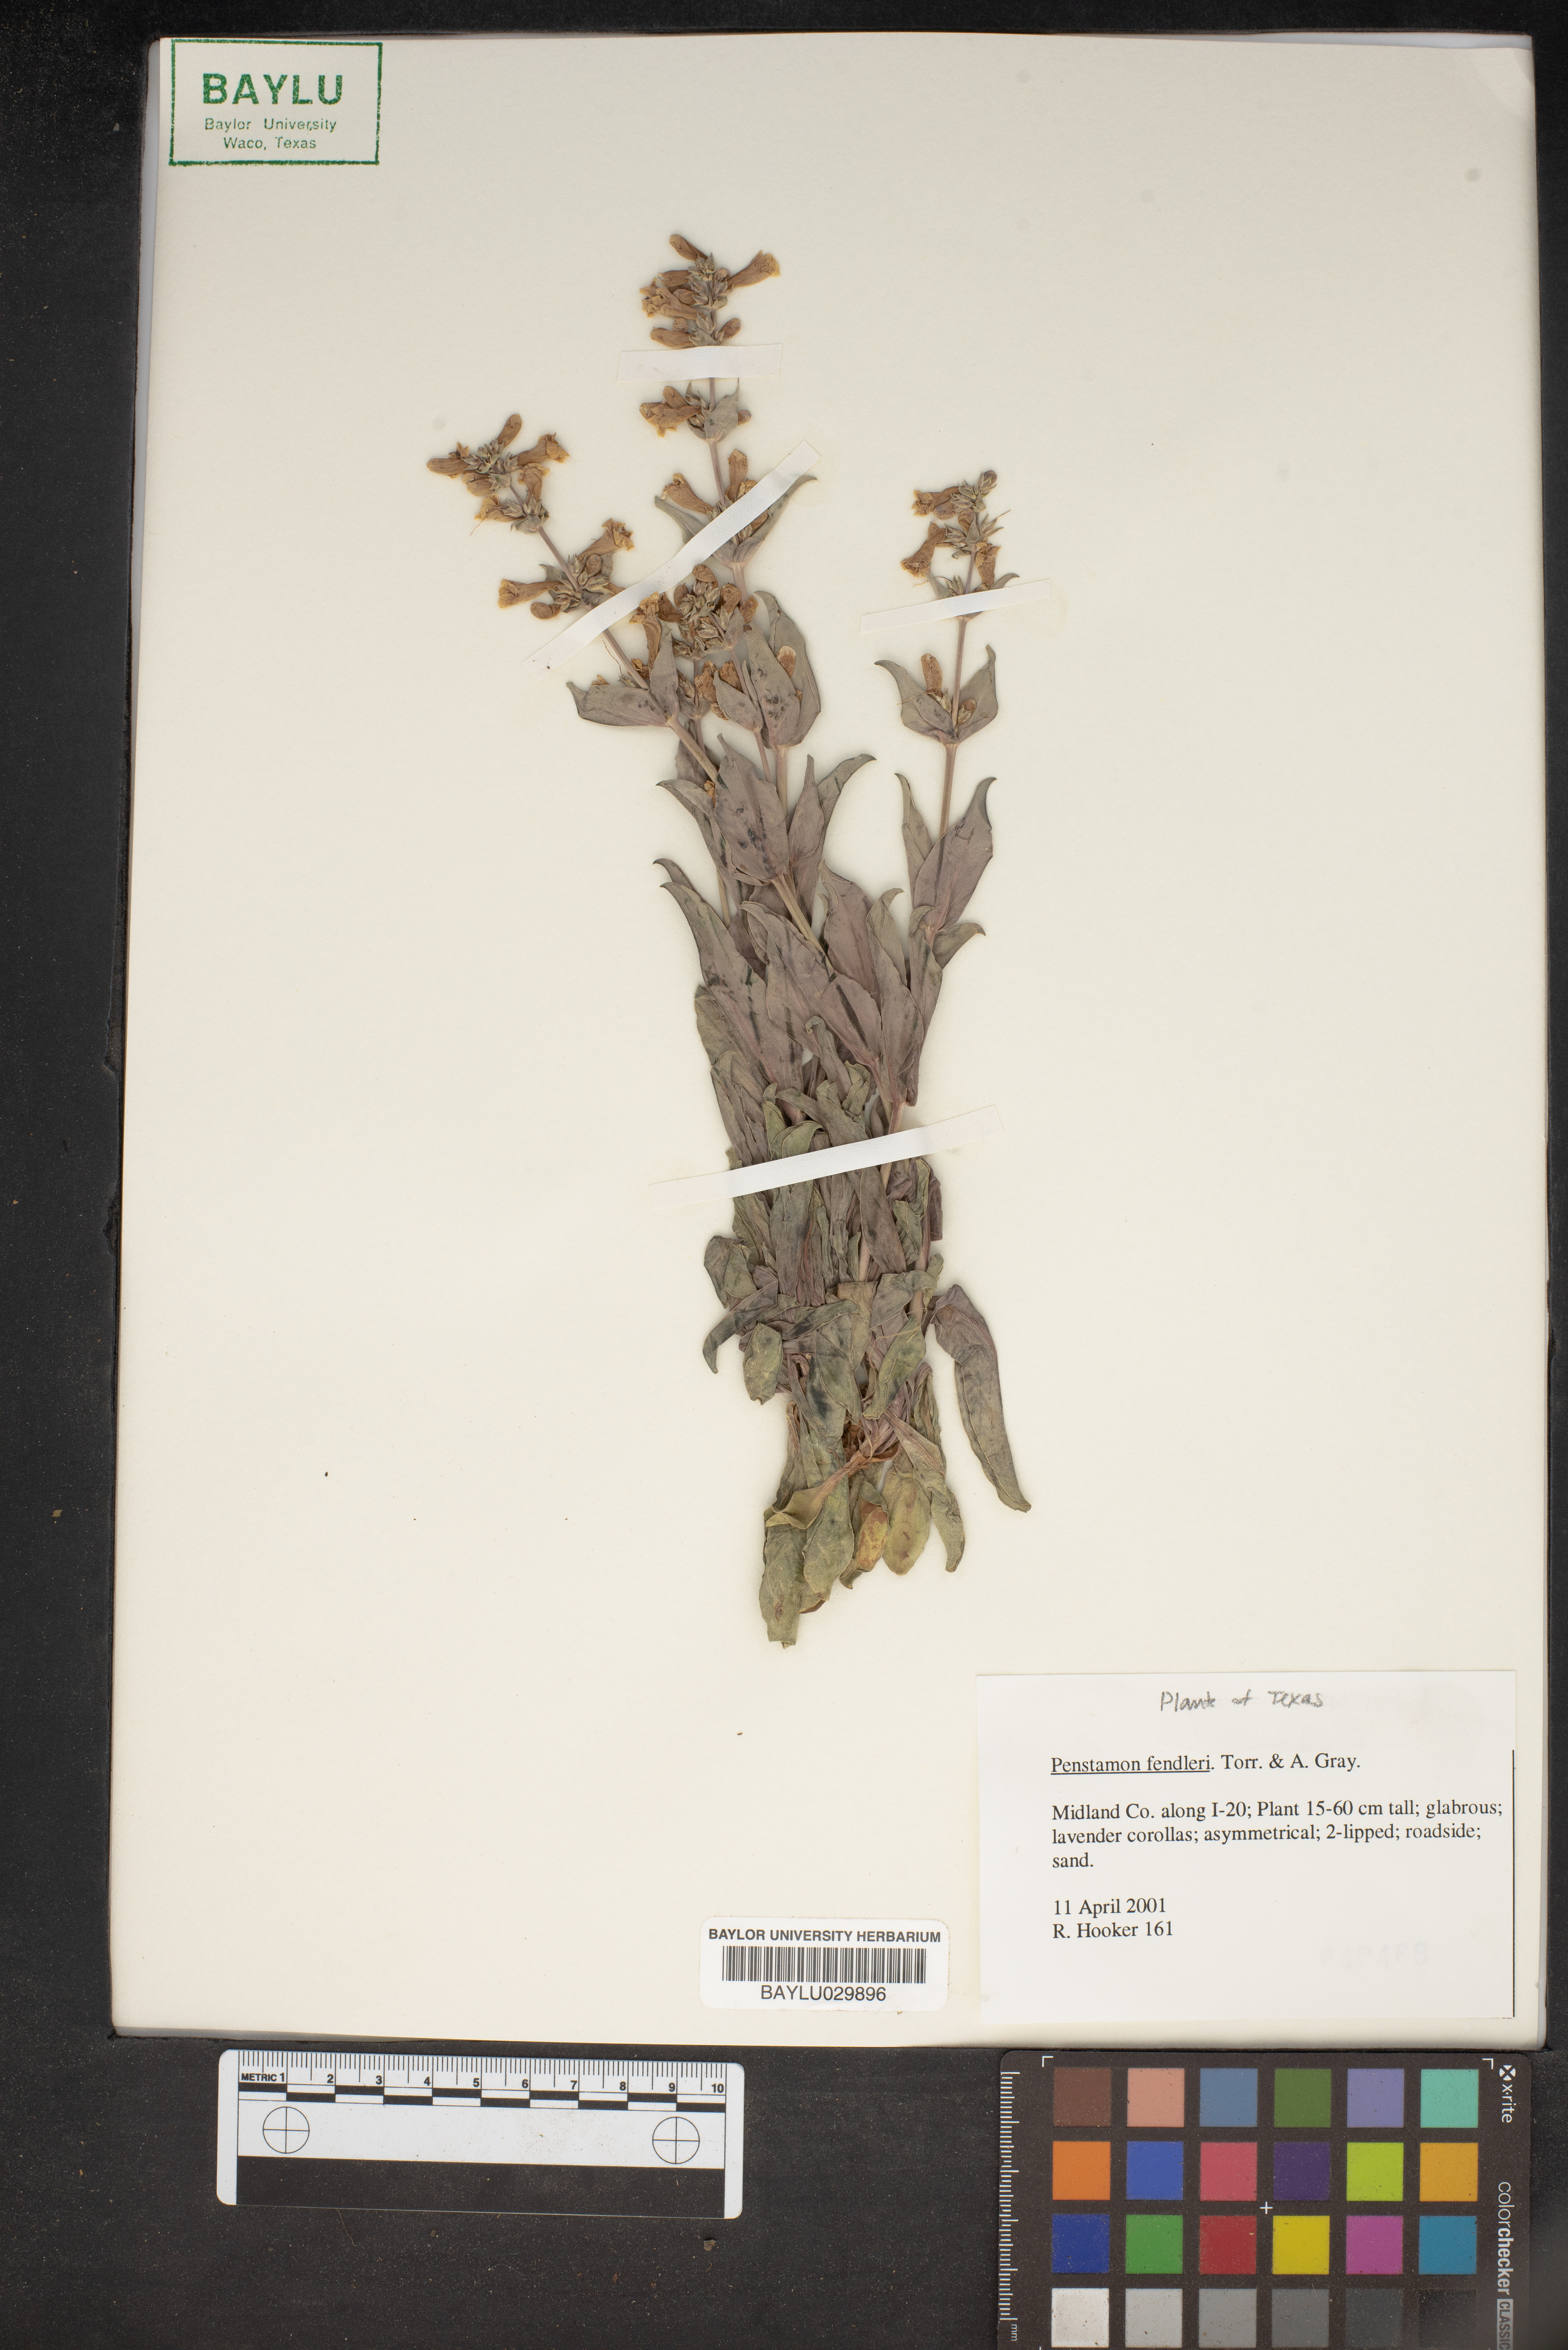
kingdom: Plantae
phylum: Tracheophyta
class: Magnoliopsida
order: Lamiales
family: Plantaginaceae
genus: Penstemon
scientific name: Penstemon fendleri
